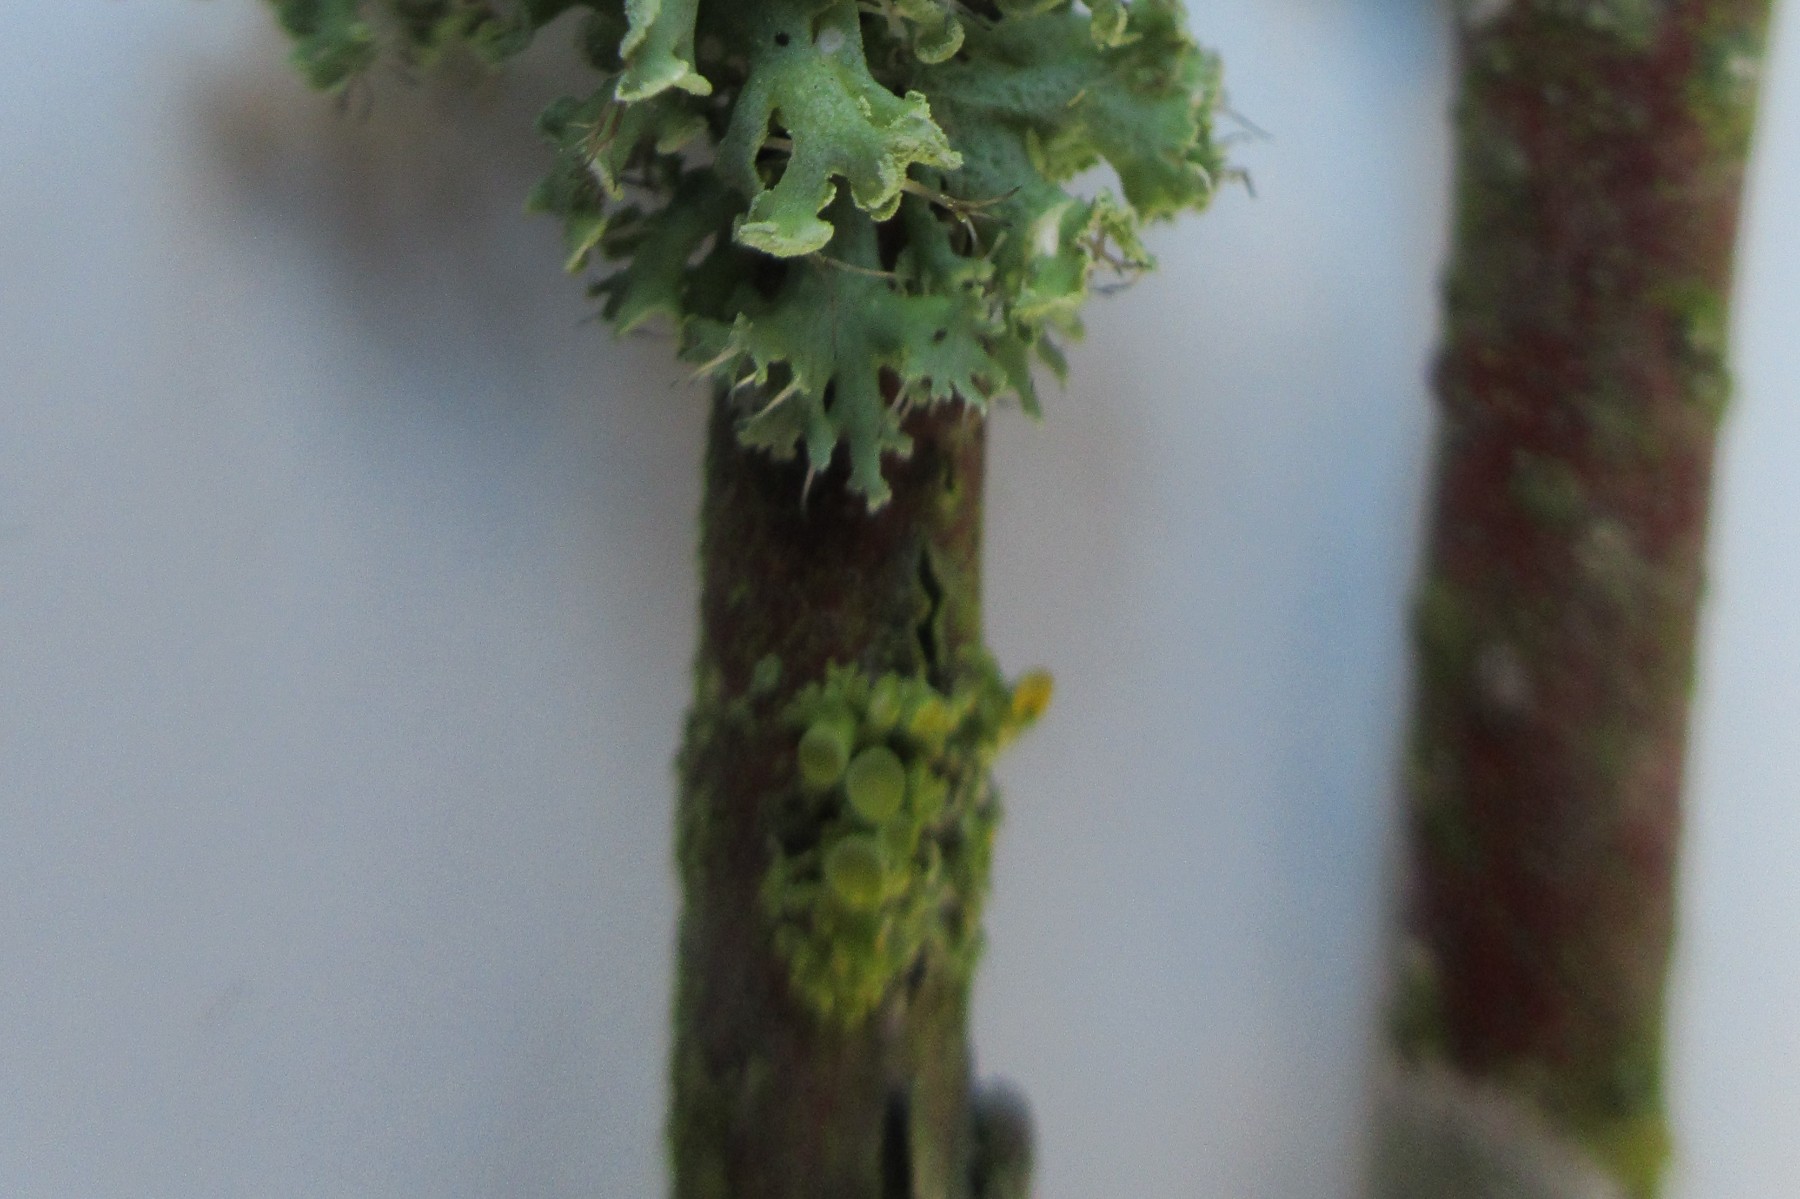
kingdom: Fungi
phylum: Ascomycota
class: Lecanoromycetes
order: Teloschistales
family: Teloschistaceae
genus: Polycauliona
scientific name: Polycauliona polycarpa
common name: mangefrugtet orangelav
